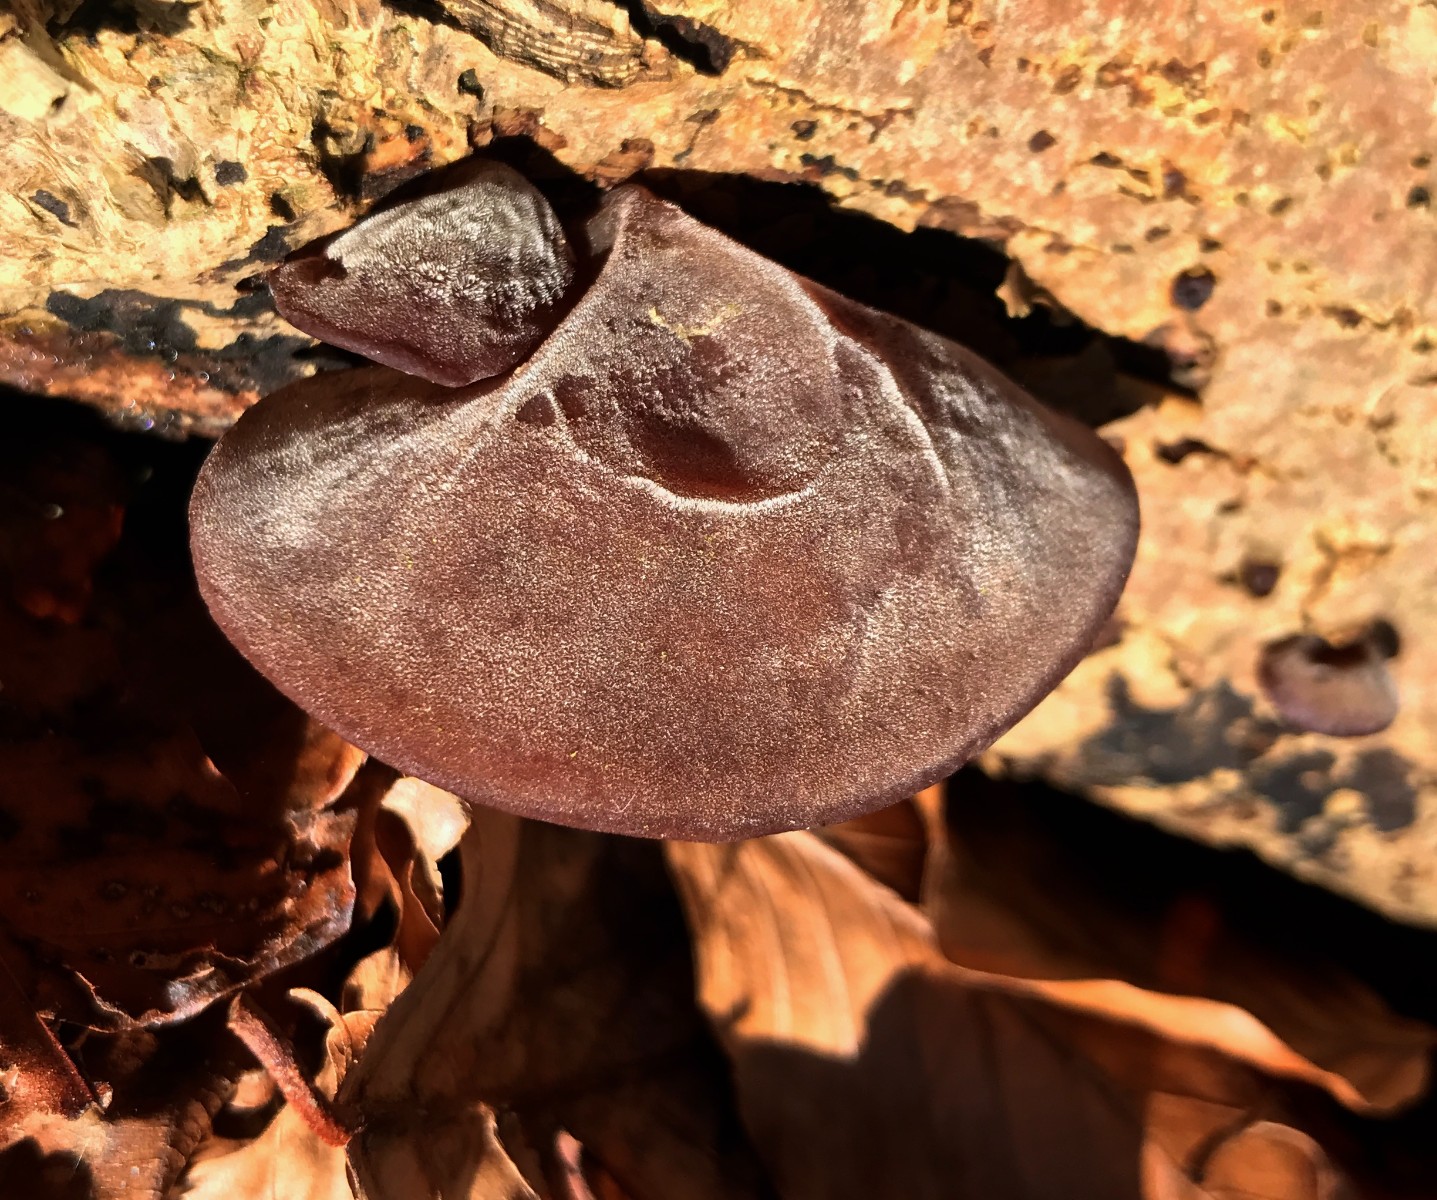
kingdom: Fungi
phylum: Basidiomycota
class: Agaricomycetes
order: Auriculariales
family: Auriculariaceae
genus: Auricularia
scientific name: Auricularia auricula-judae
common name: almindelig judasøre
